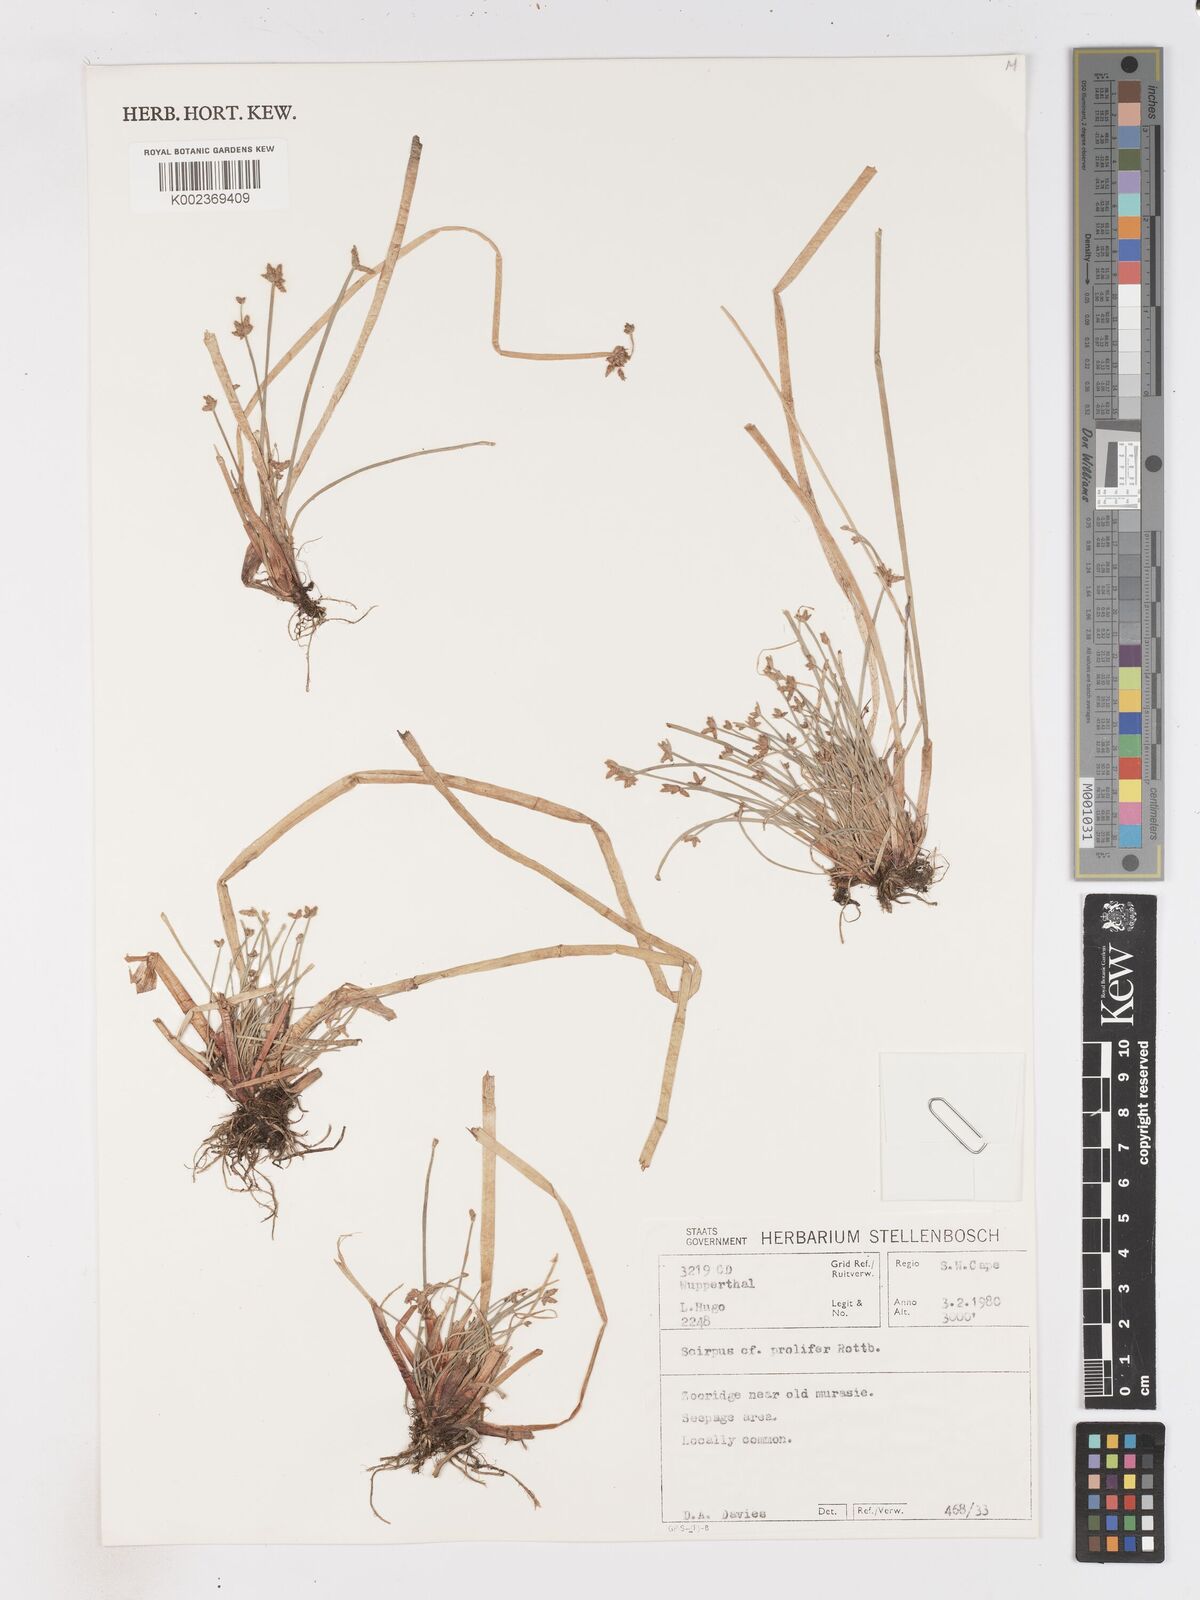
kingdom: Plantae
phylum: Tracheophyta
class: Liliopsida
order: Poales
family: Cyperaceae
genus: Isolepis
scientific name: Isolepis prolifera
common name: Proliferating bulrush
